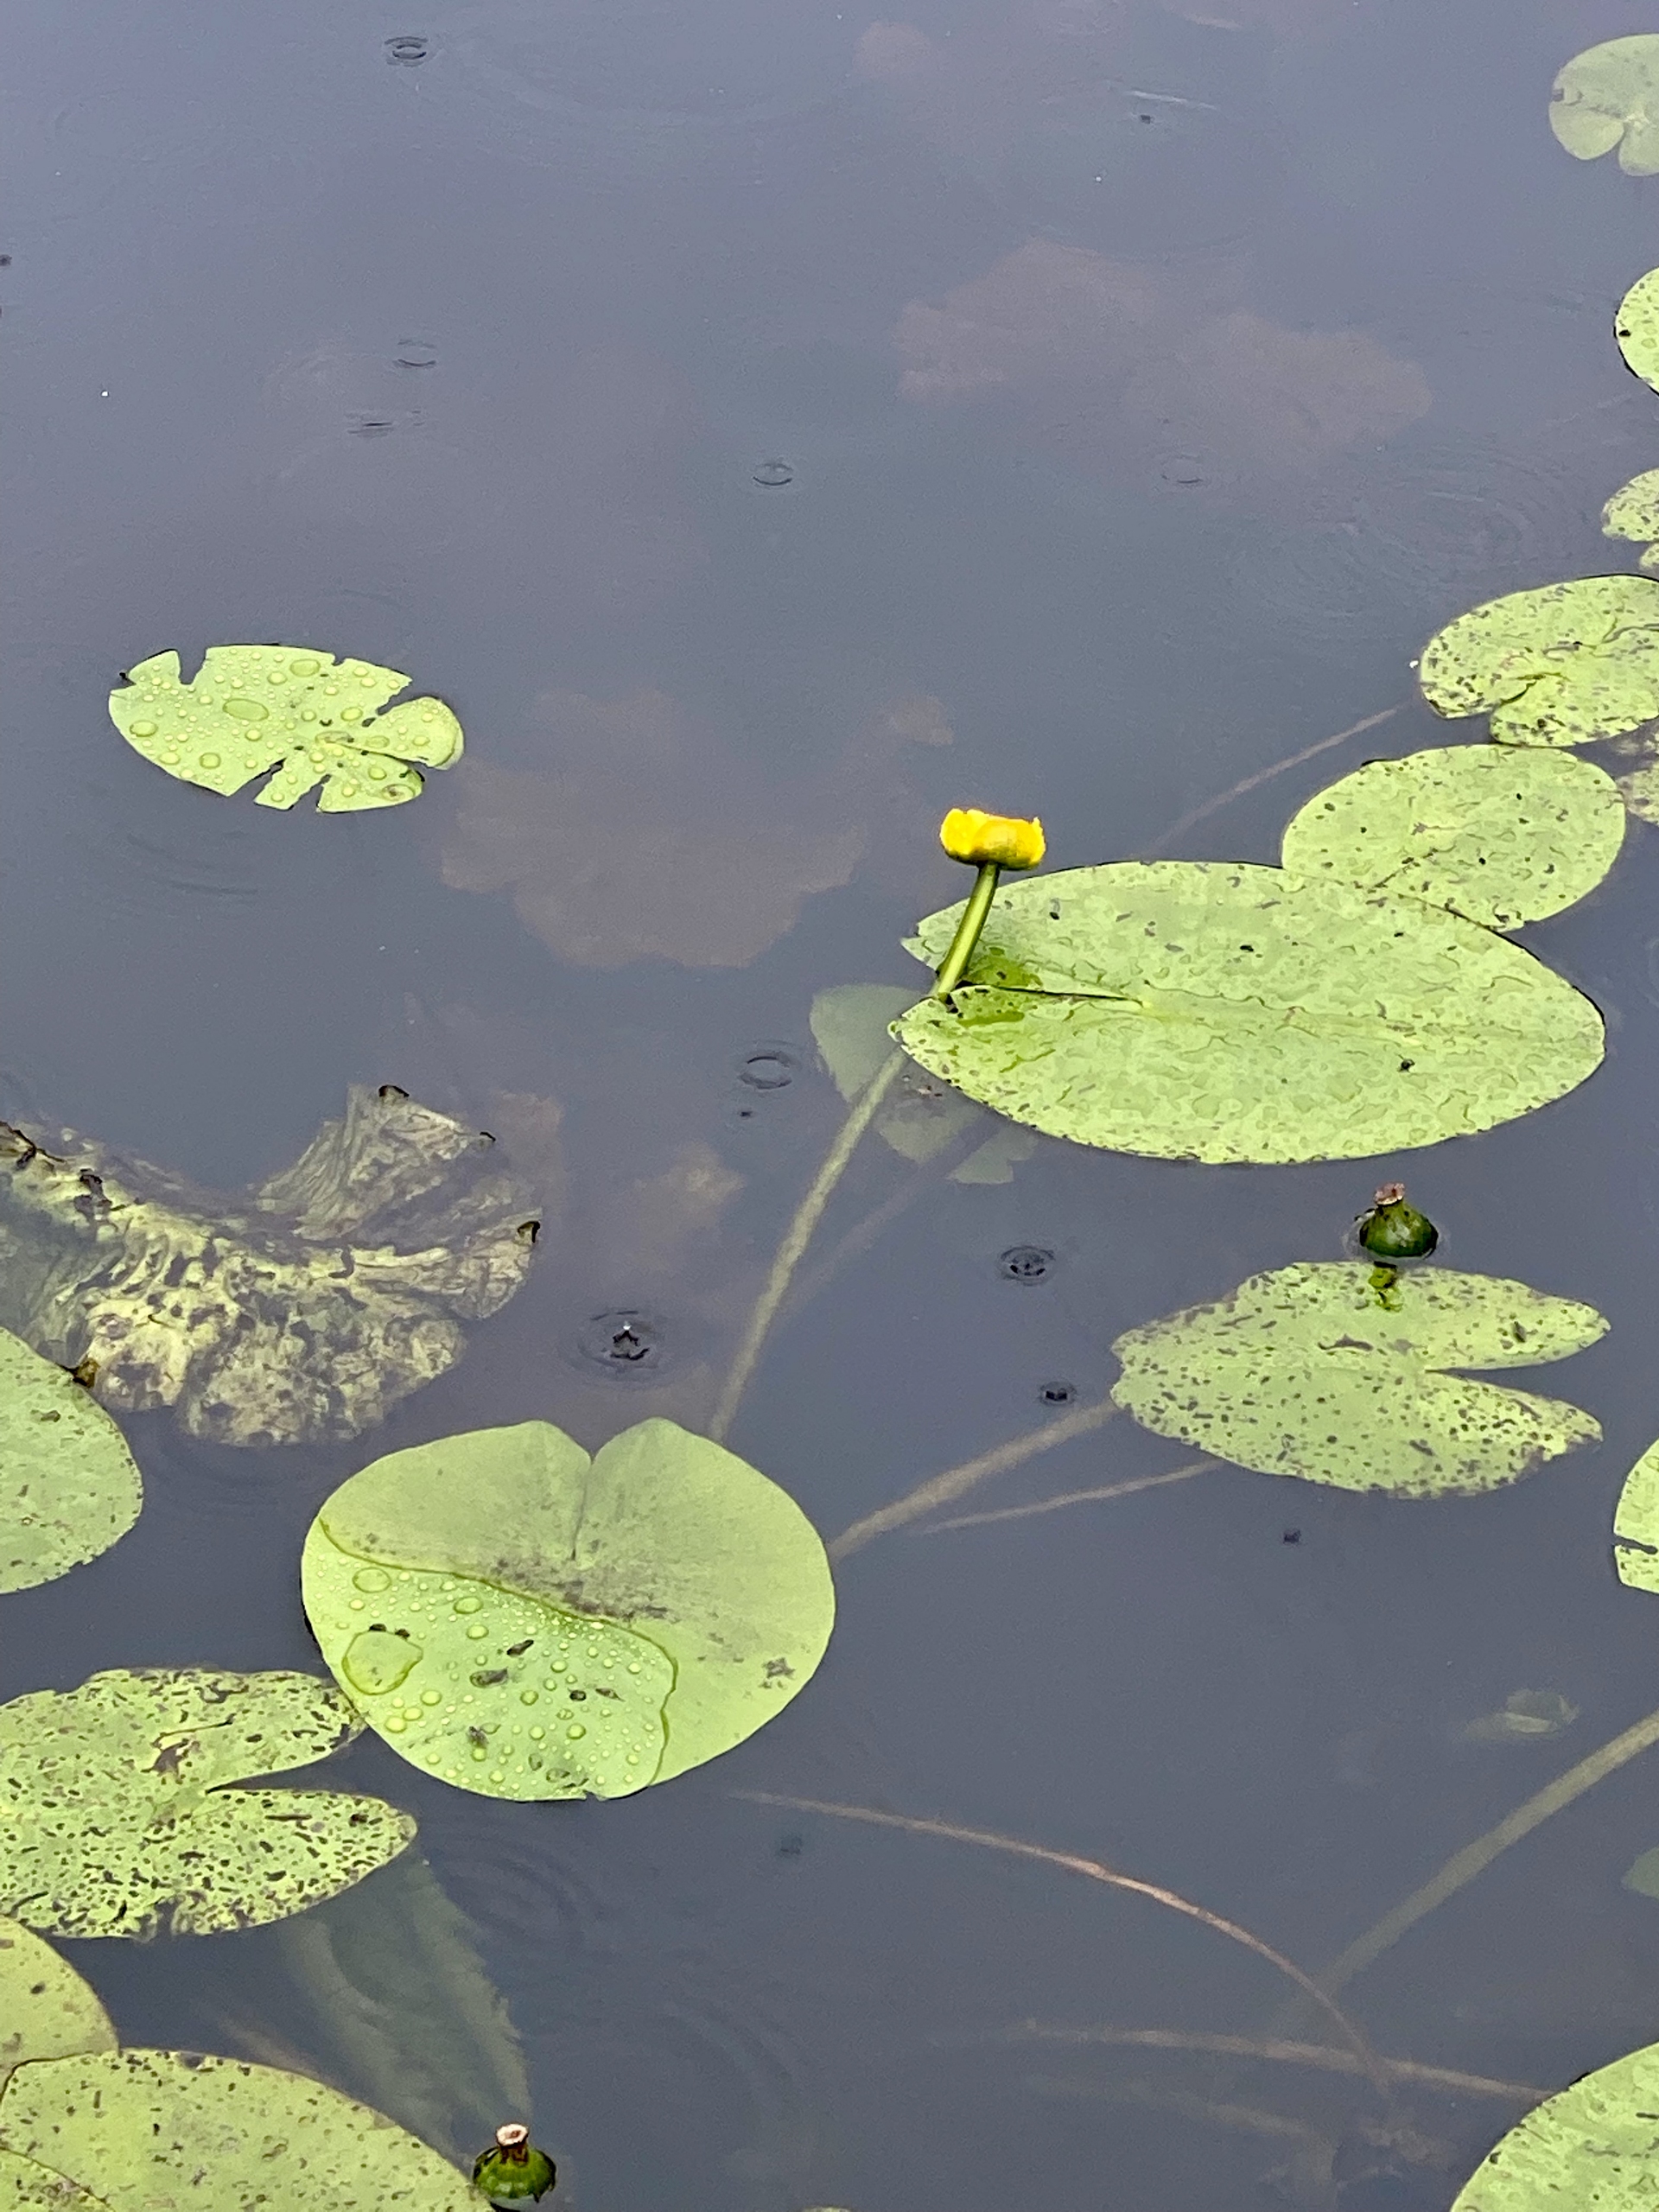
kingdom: Plantae
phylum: Tracheophyta
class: Magnoliopsida
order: Nymphaeales
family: Nymphaeaceae
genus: Nuphar
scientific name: Nuphar lutea
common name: Gul åkande
